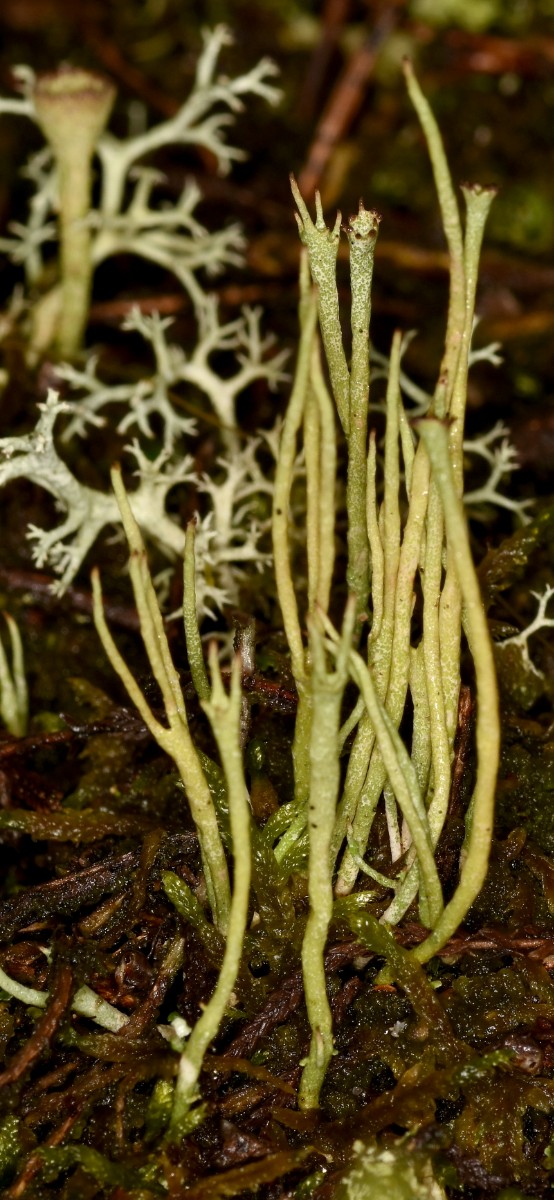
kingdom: Fungi
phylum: Ascomycota
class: Lecanoromycetes
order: Lecanorales
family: Cladoniaceae
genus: Cladonia
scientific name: Cladonia gracilis
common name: slank bægerlav
